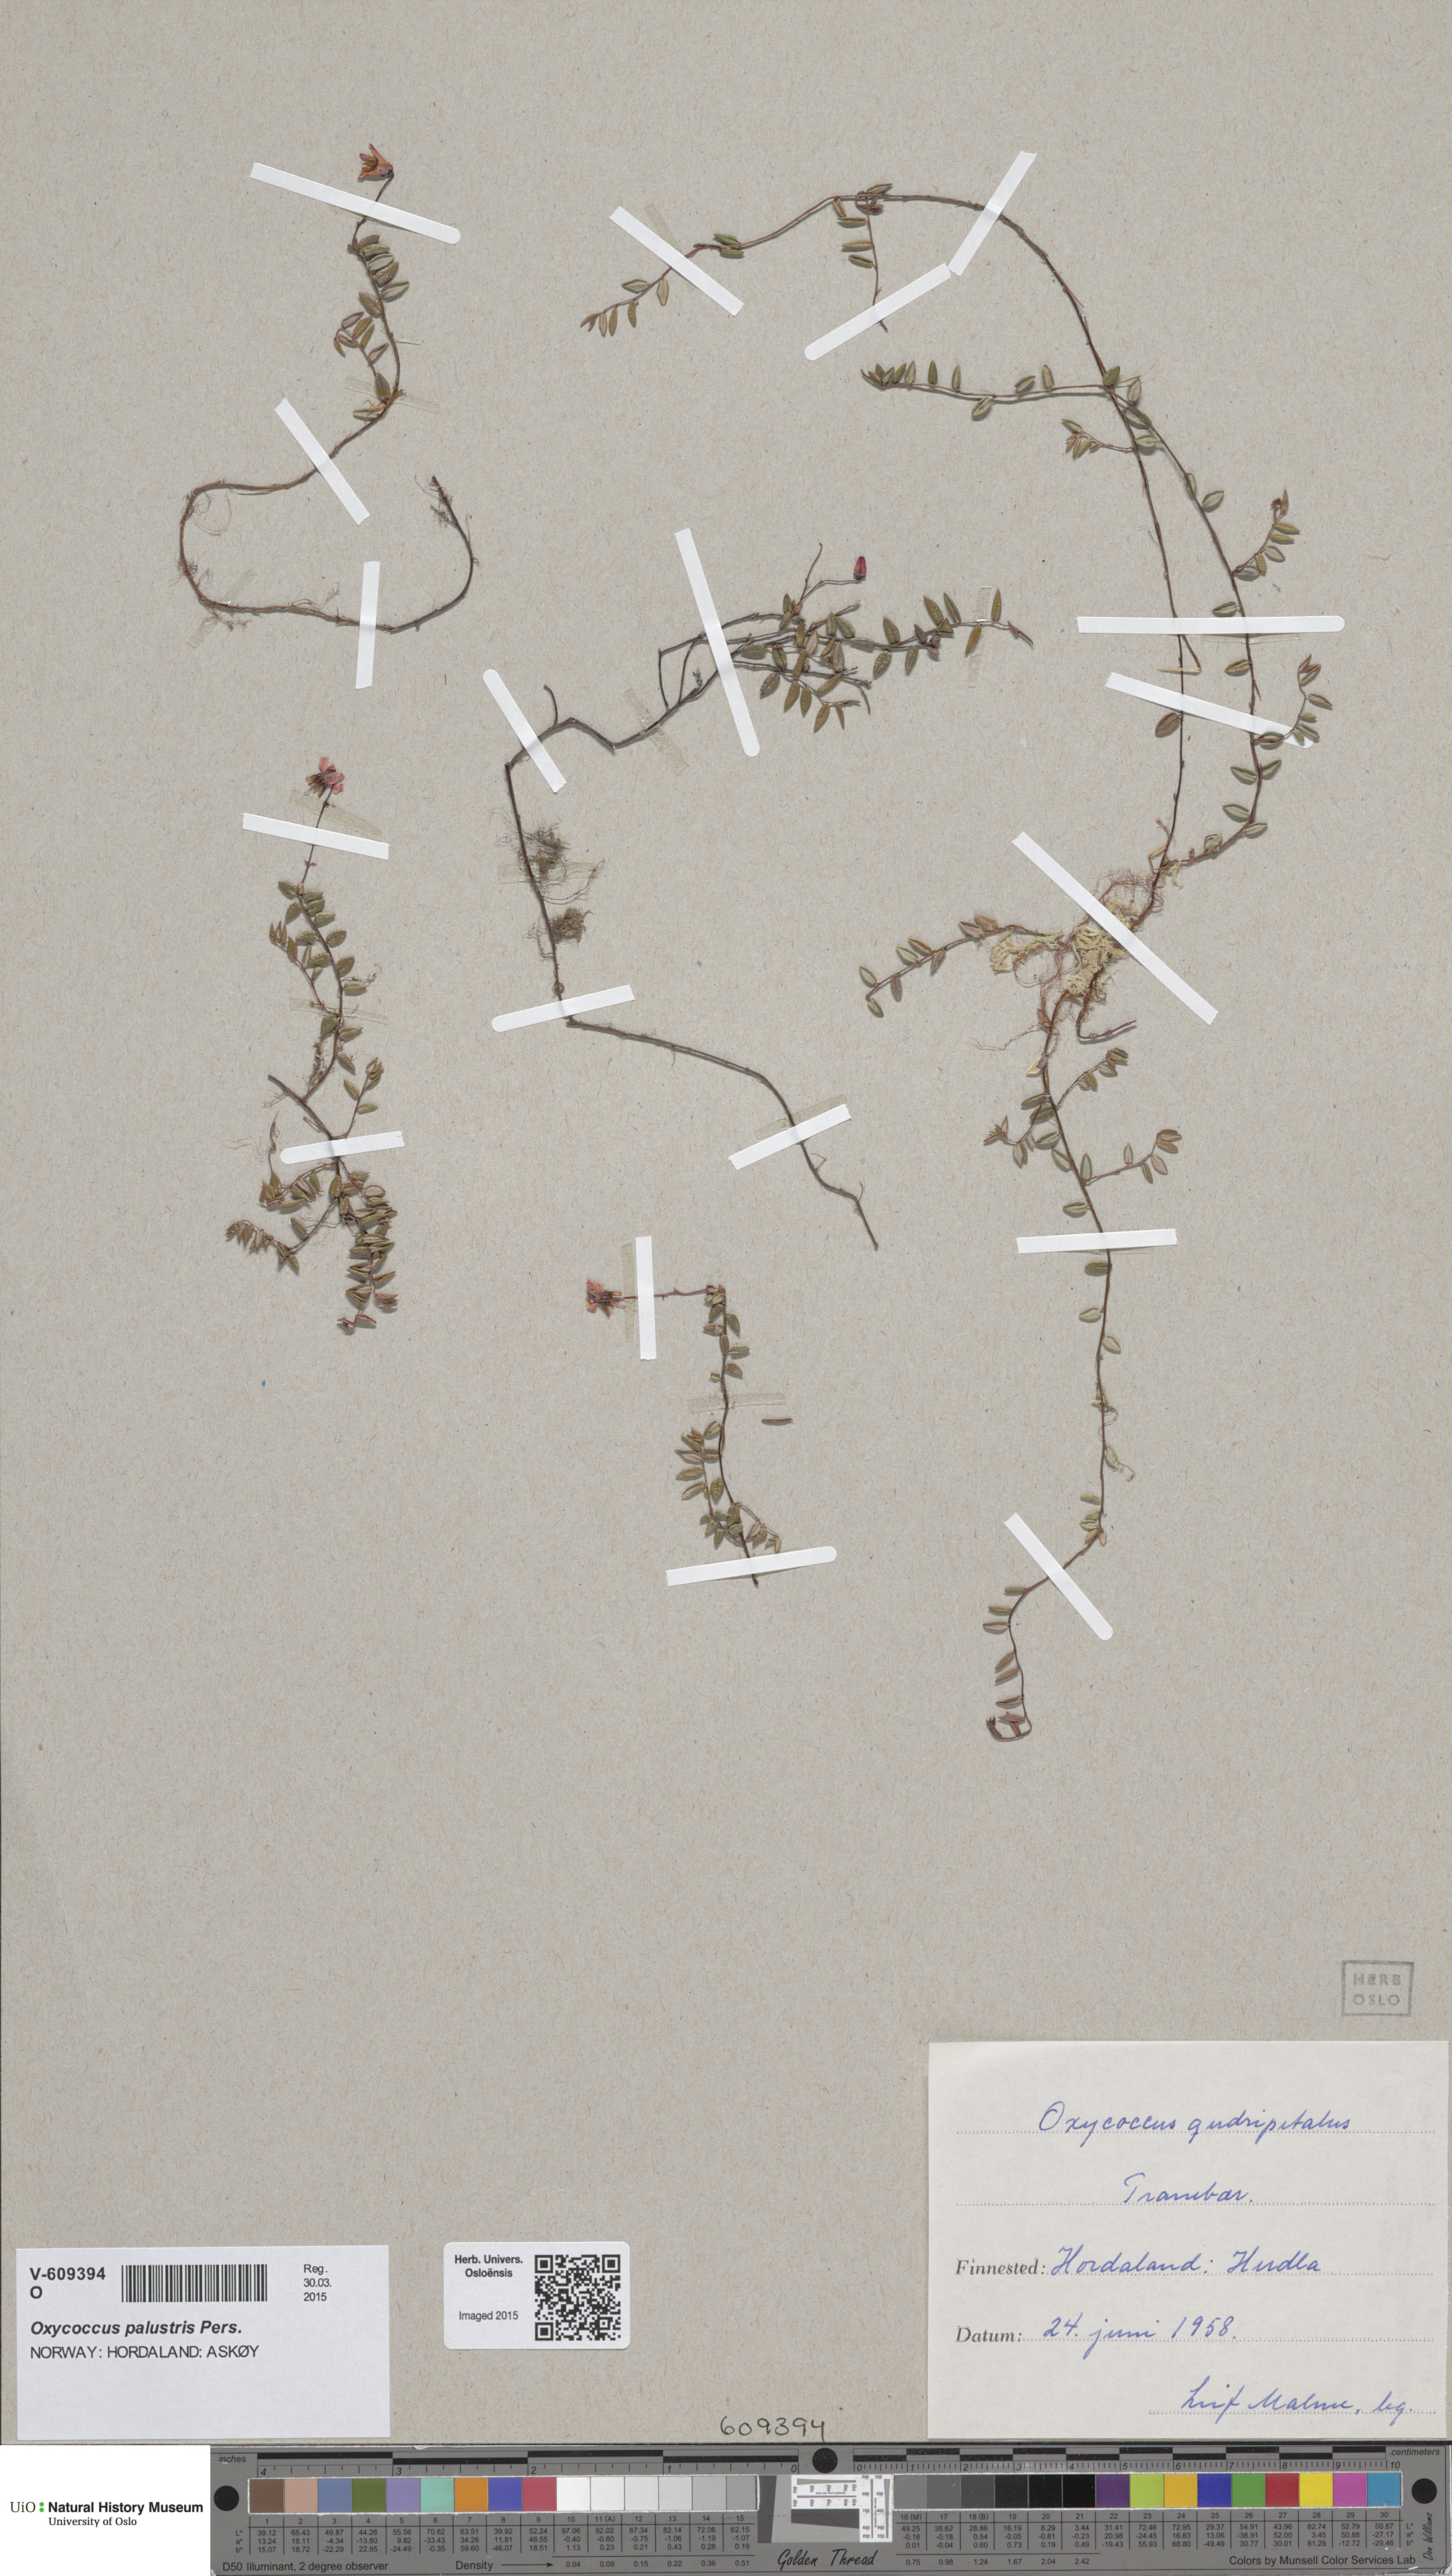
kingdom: Plantae
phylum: Tracheophyta
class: Magnoliopsida
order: Ericales
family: Ericaceae
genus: Vaccinium
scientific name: Vaccinium oxycoccos
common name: Cranberry
